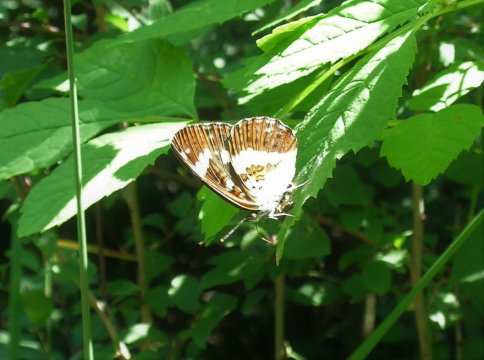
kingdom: Animalia
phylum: Arthropoda
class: Insecta
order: Lepidoptera
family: Nymphalidae
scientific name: Nymphalidae
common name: White Admiral
